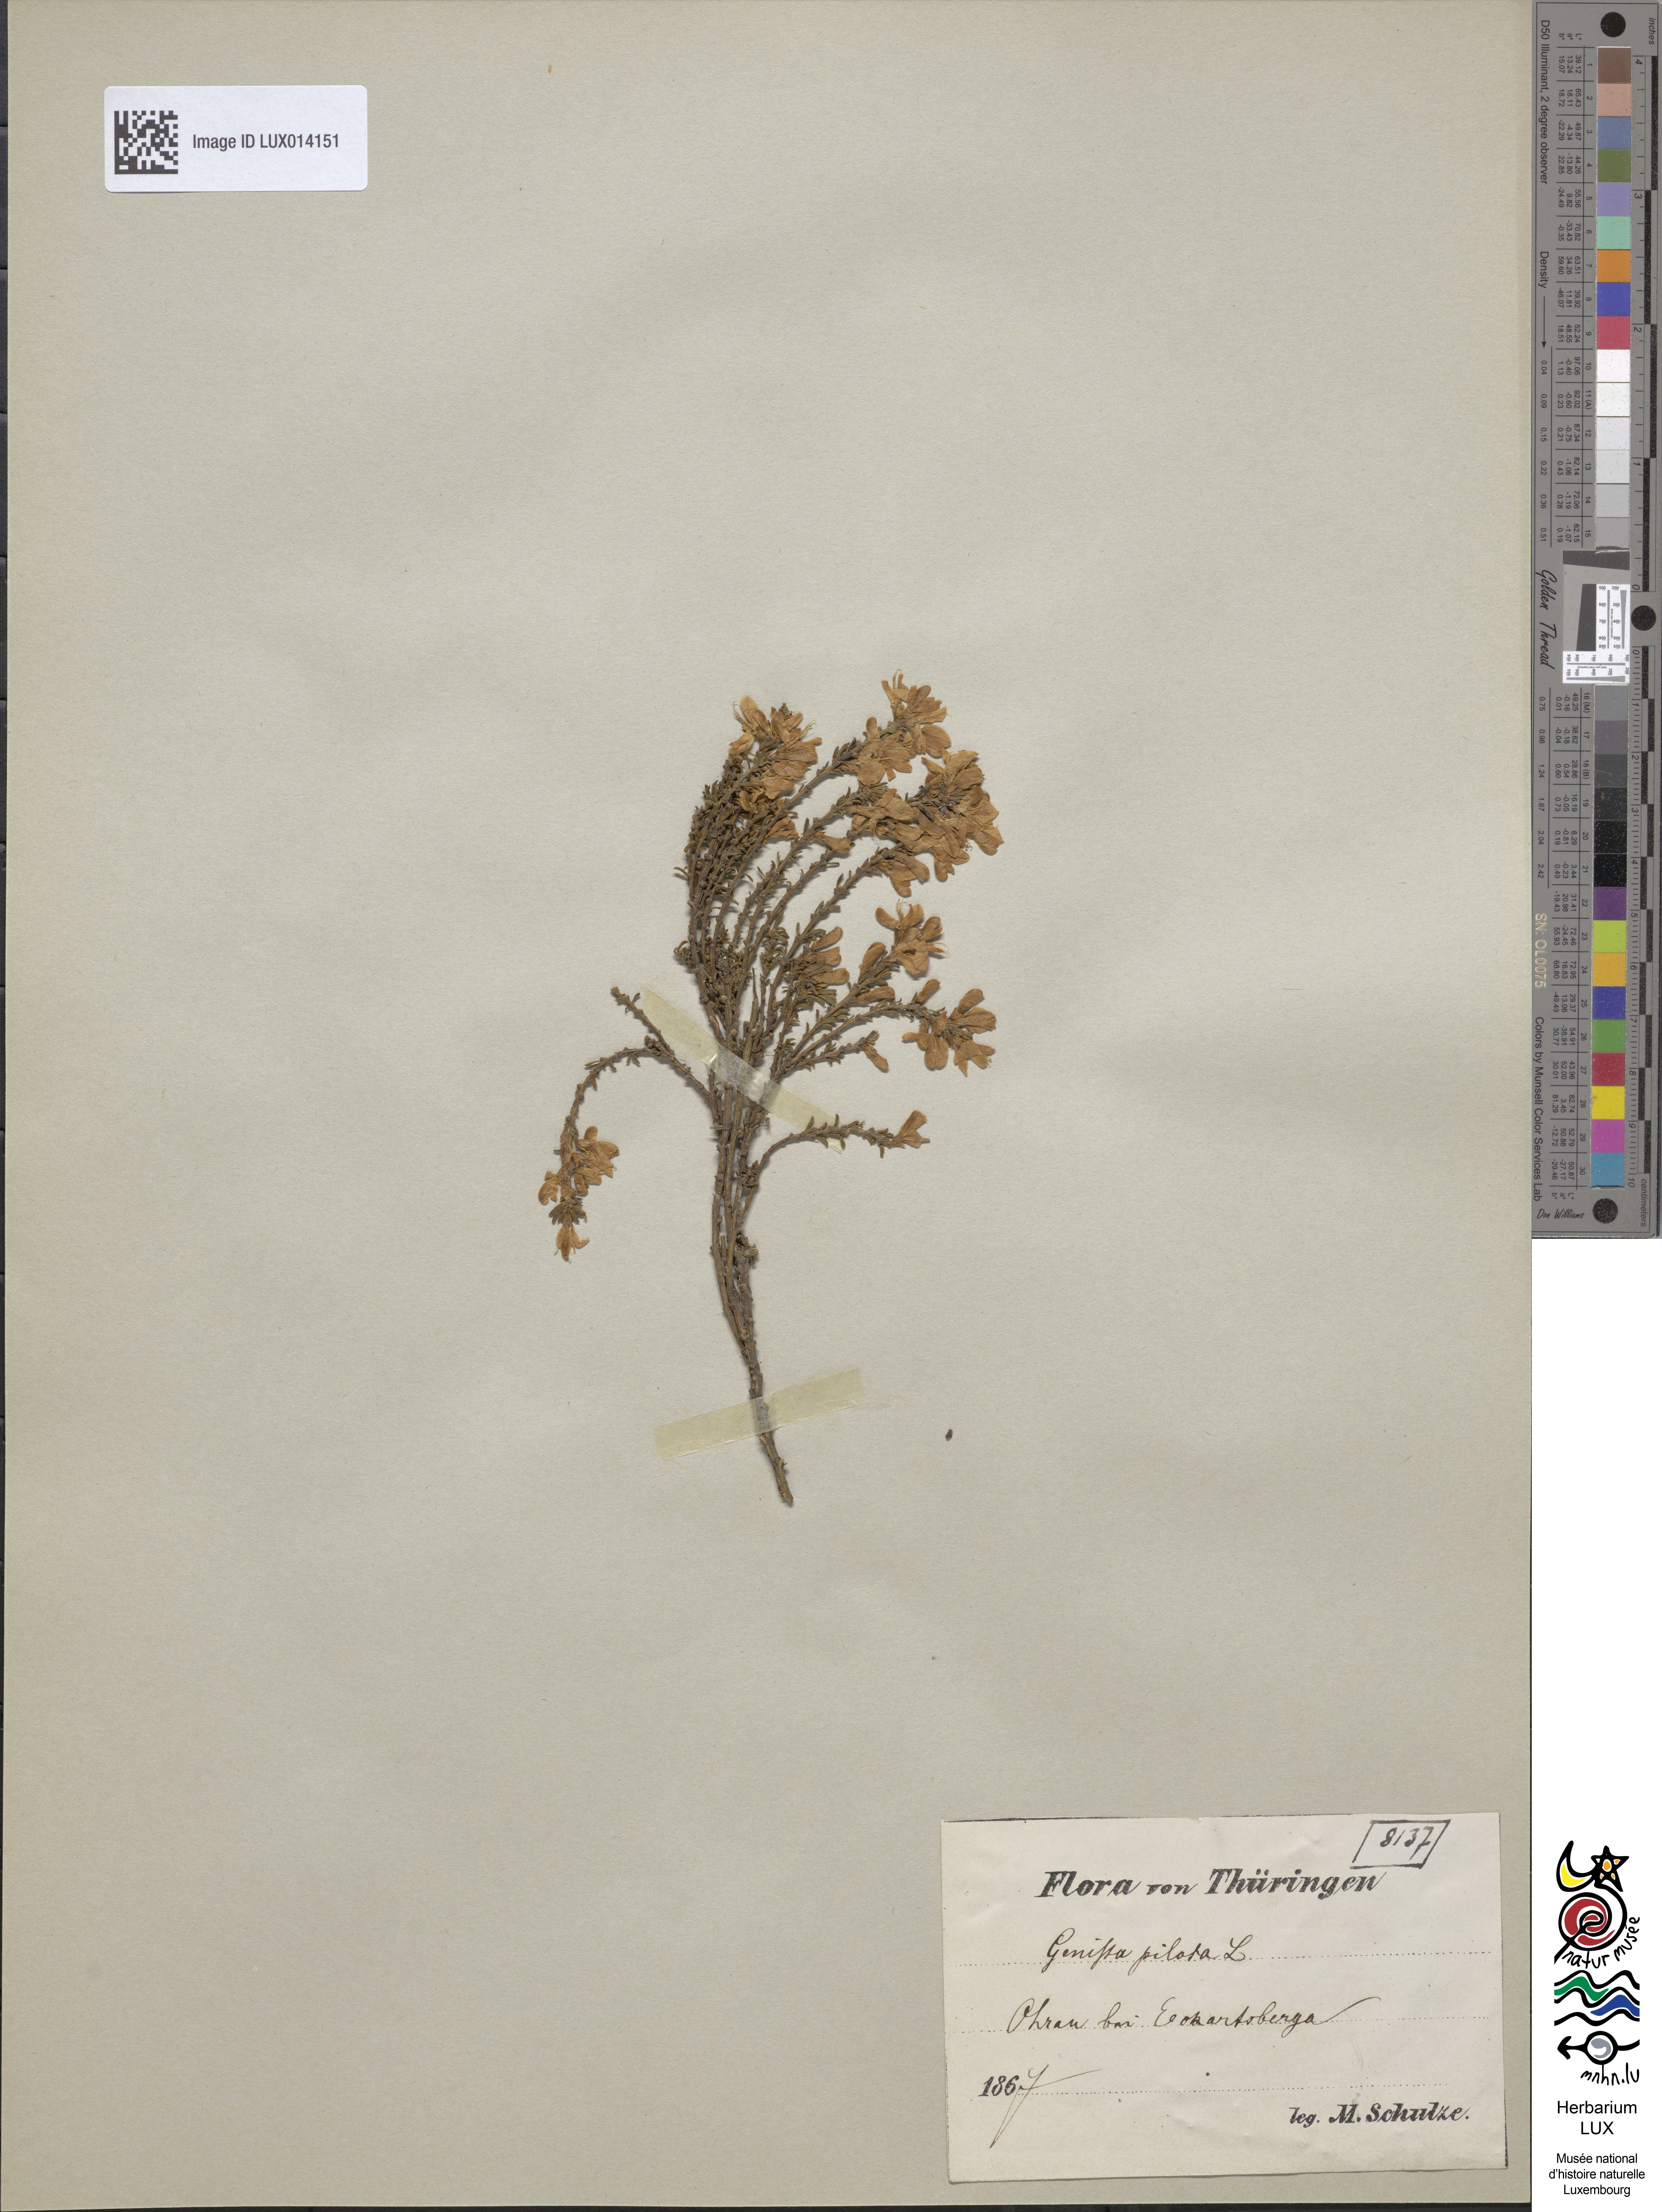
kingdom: Plantae
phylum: Tracheophyta
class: Magnoliopsida
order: Fabales
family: Fabaceae
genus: Genista
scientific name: Genista pilosa
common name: Hairy greenweed
